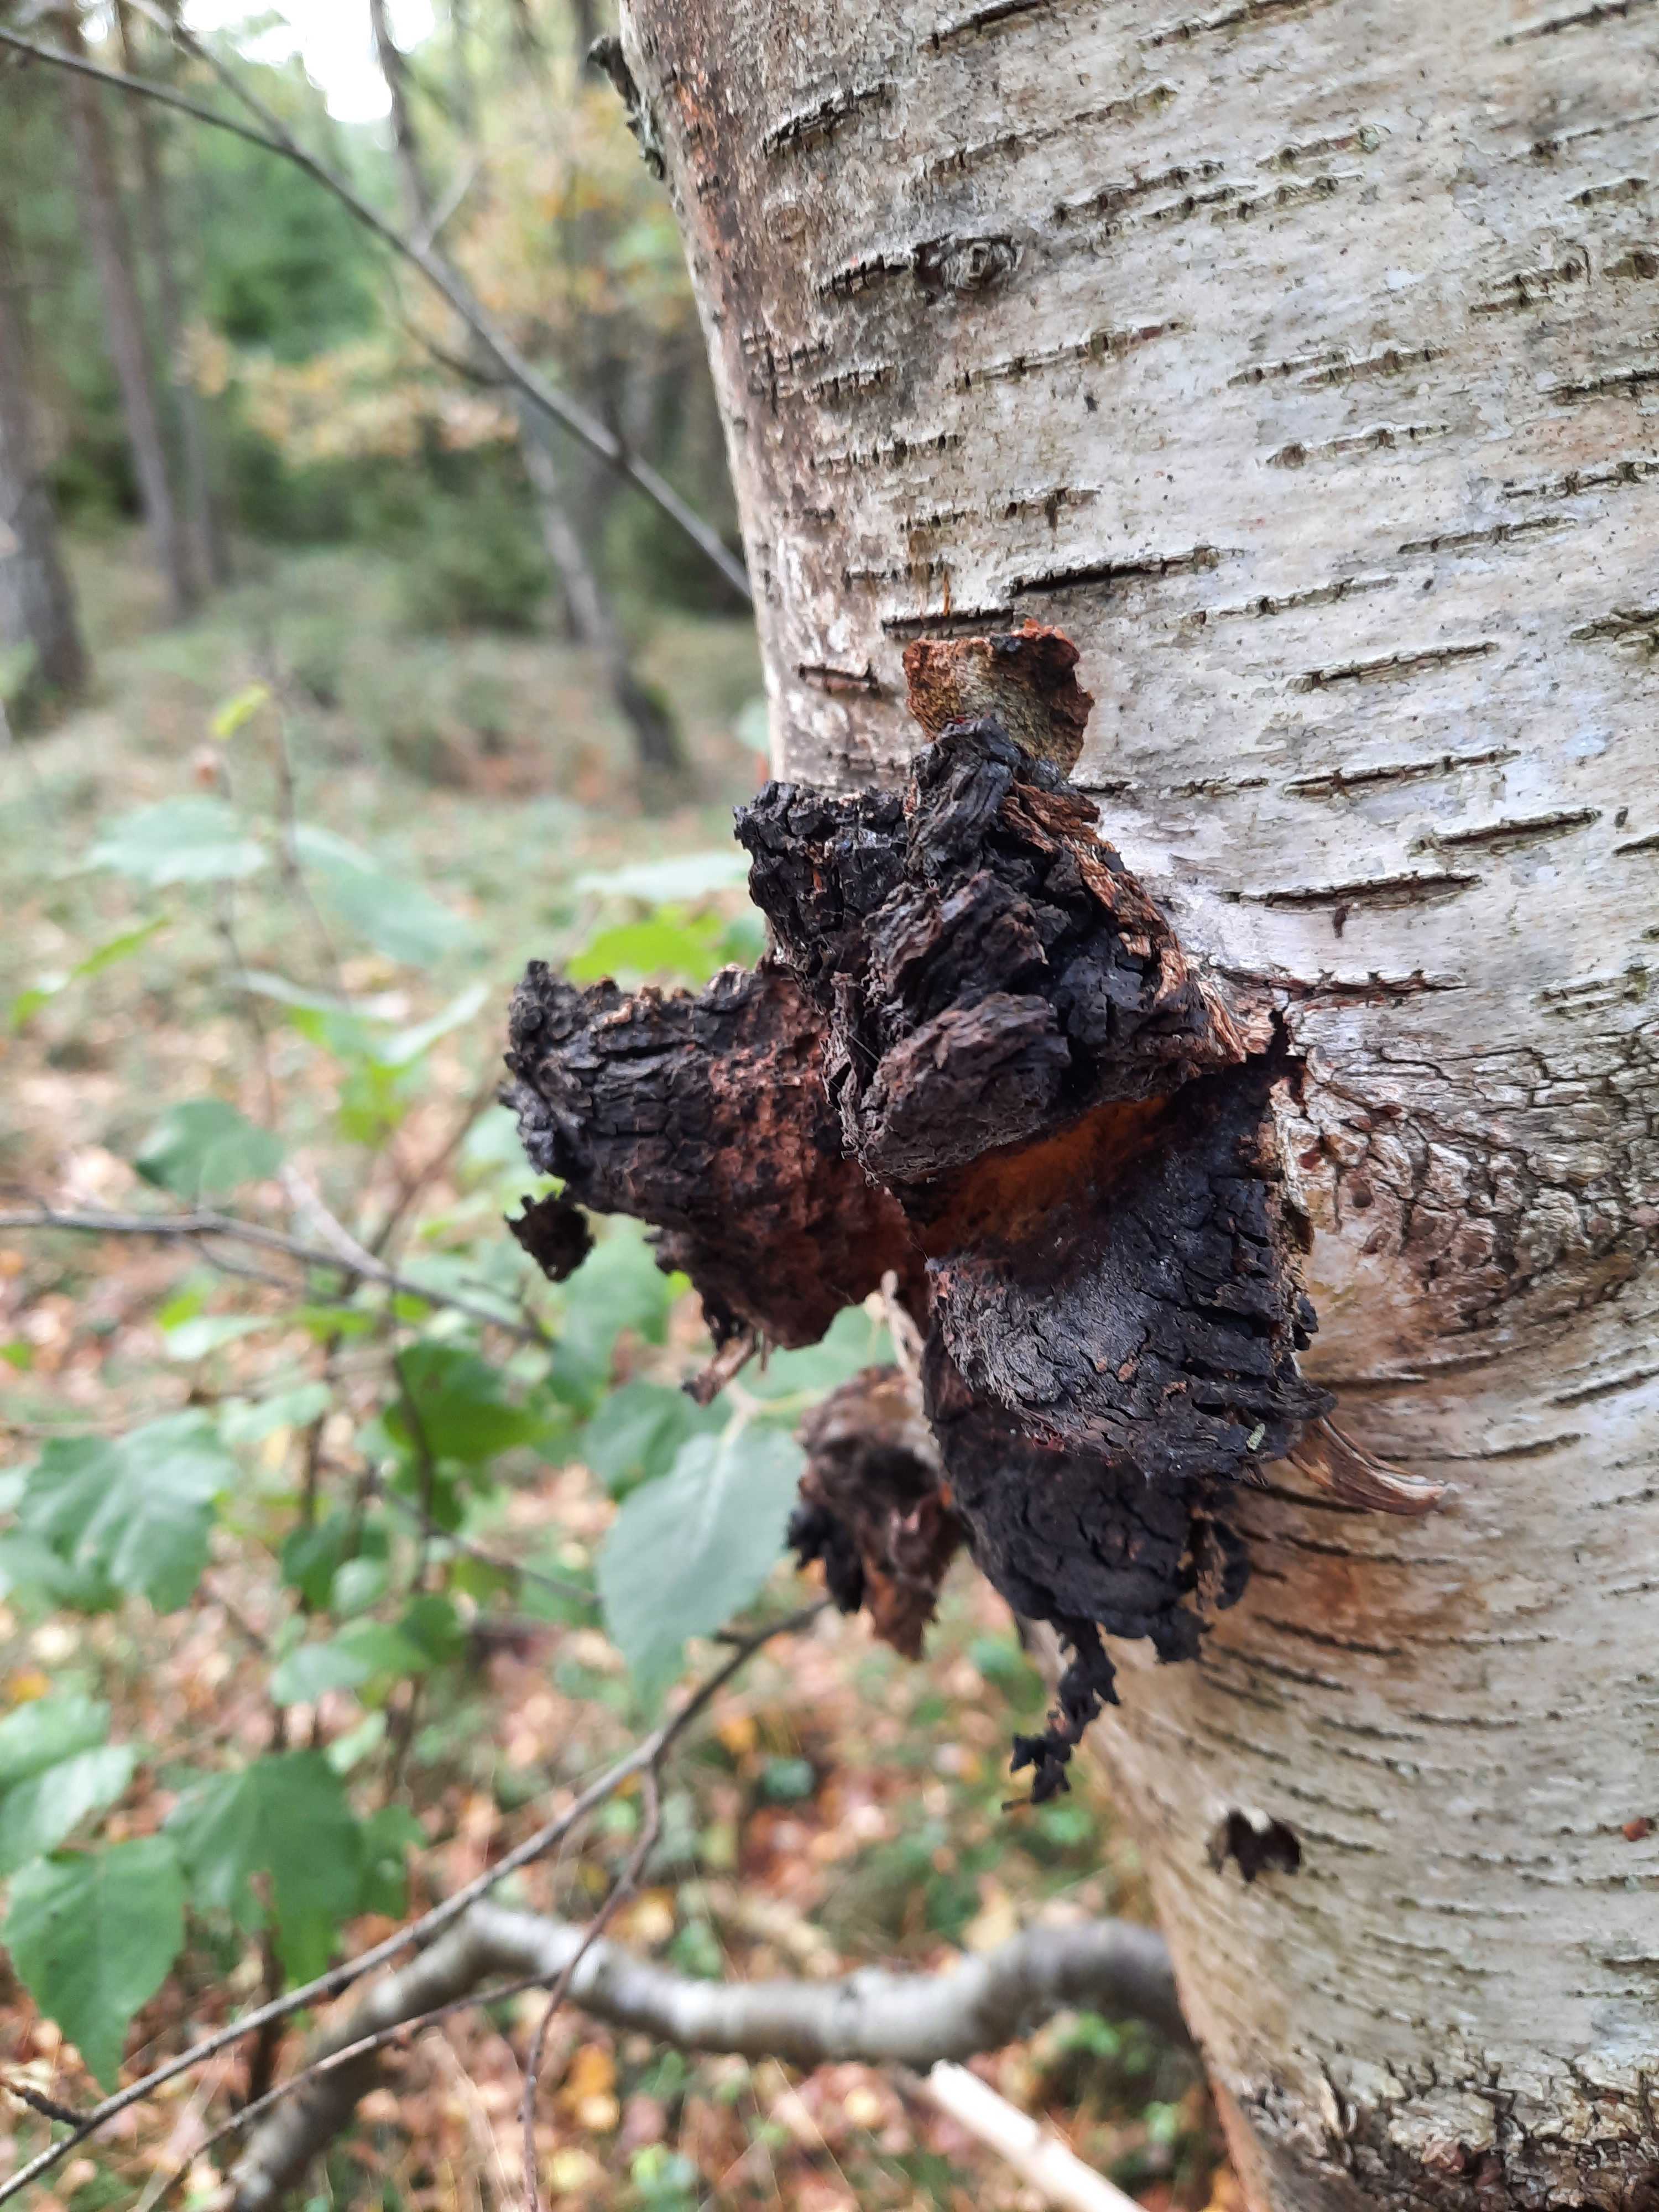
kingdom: Fungi
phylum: Basidiomycota
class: Agaricomycetes
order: Hymenochaetales
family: Hymenochaetaceae
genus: Inonotus
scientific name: Inonotus obliquus
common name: birke-spejlporesvamp
